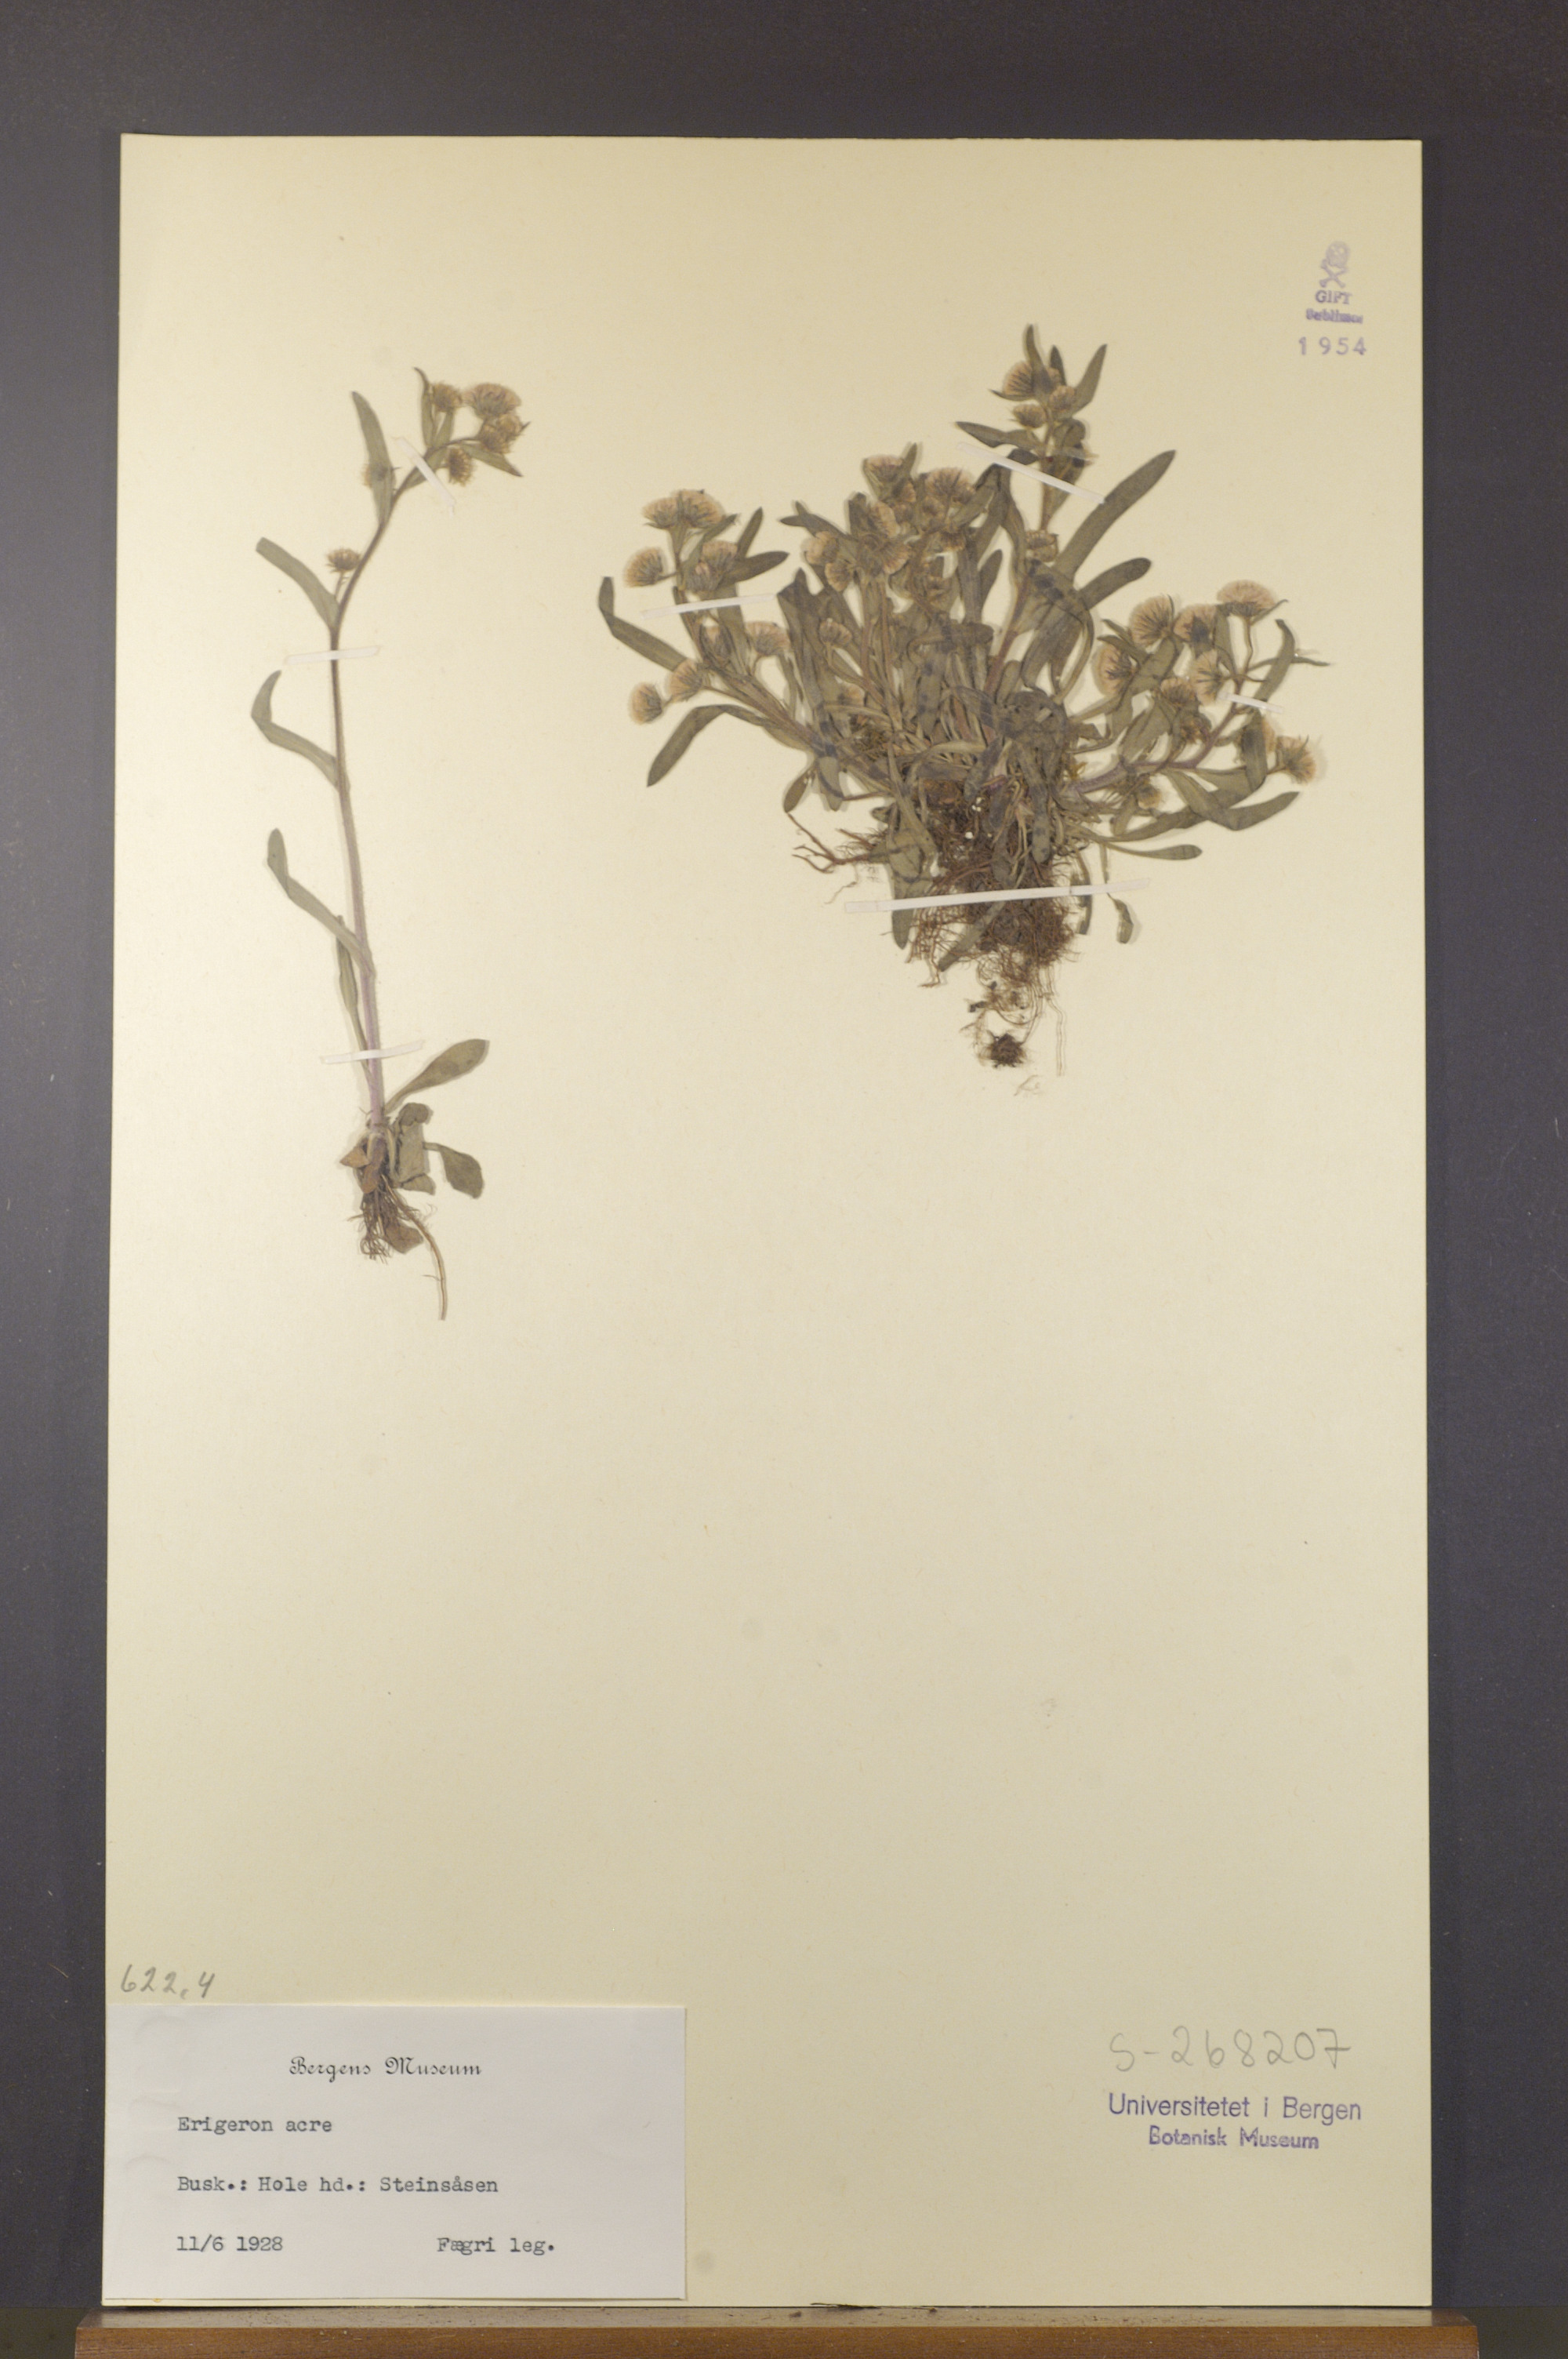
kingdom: Plantae
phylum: Tracheophyta
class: Magnoliopsida
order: Asterales
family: Asteraceae
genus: Erigeron
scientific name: Erigeron acris
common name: Blue fleabane
